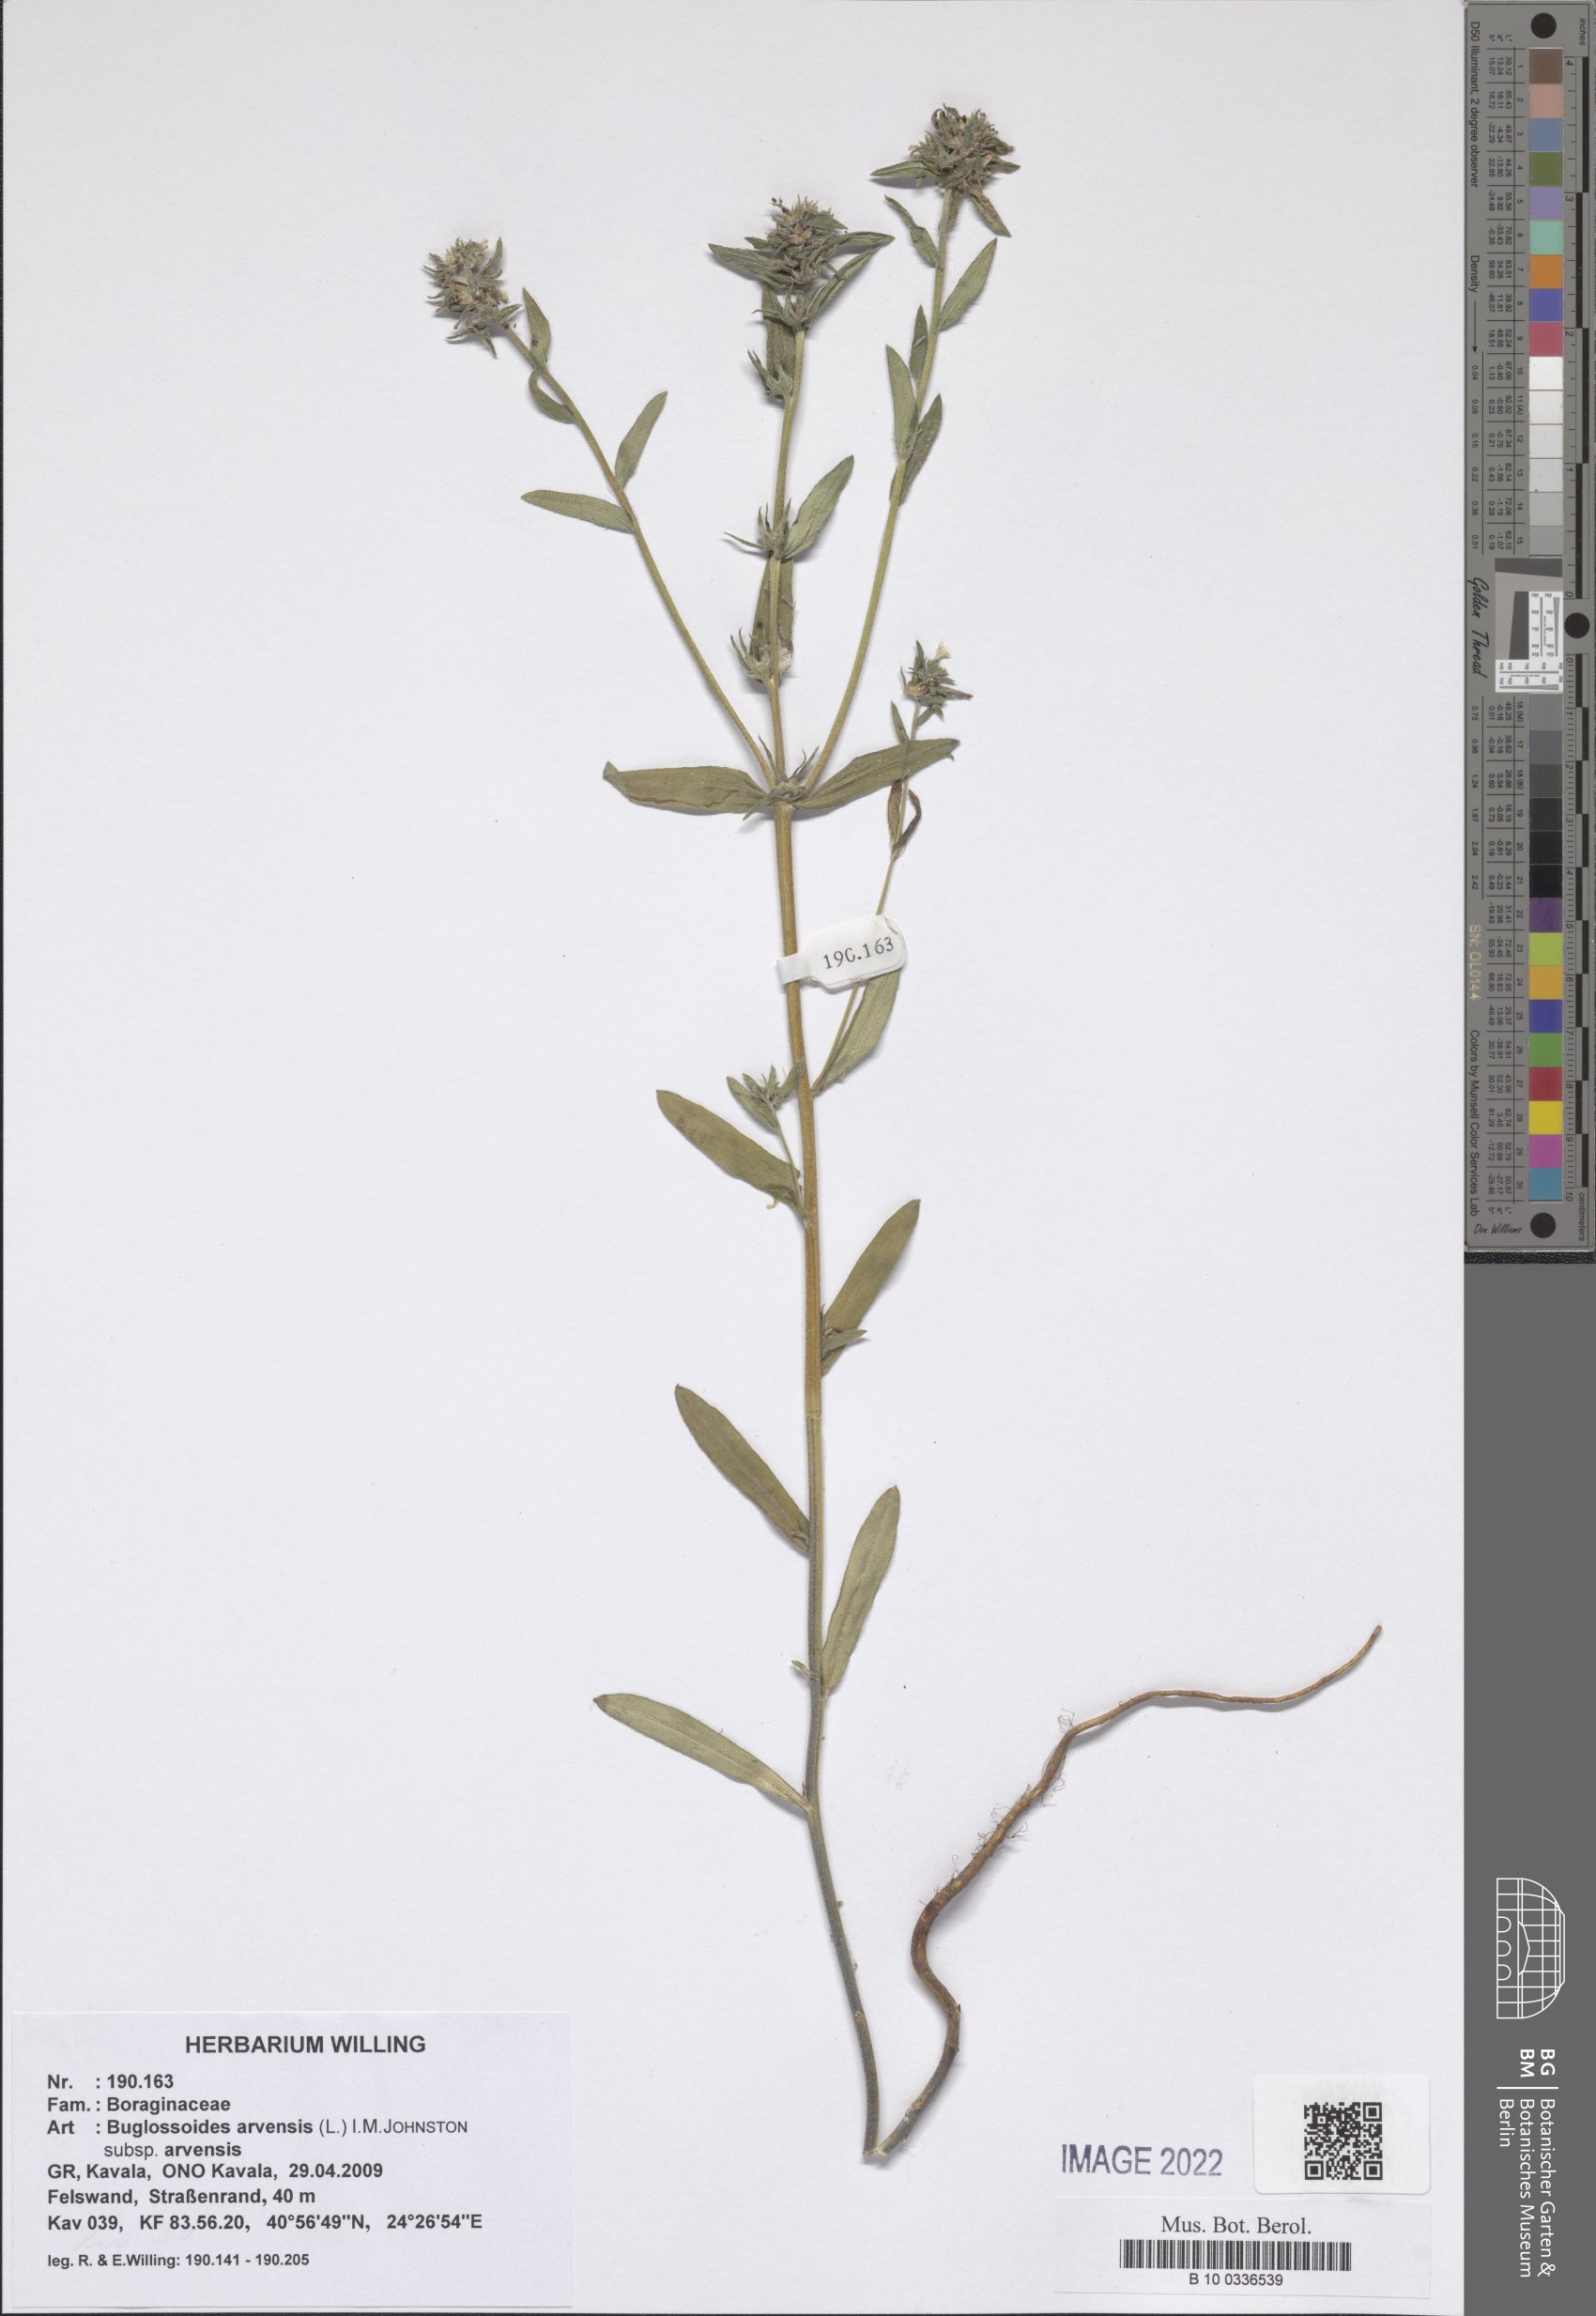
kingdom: Plantae
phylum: Tracheophyta
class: Magnoliopsida
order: Boraginales
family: Boraginaceae
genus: Buglossoides
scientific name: Buglossoides arvensis
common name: Corn gromwell
